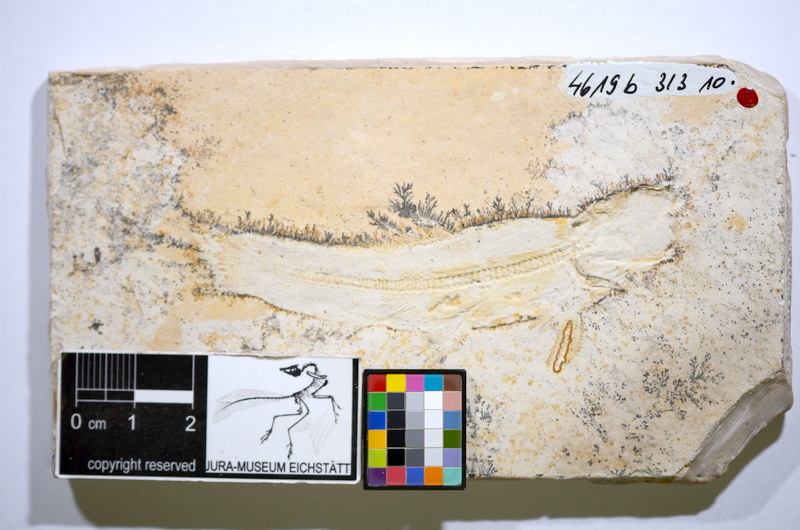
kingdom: Animalia
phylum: Chordata
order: Amiiformes
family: Amiidae
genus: Solnhofenamia
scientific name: Solnhofenamia elongata
